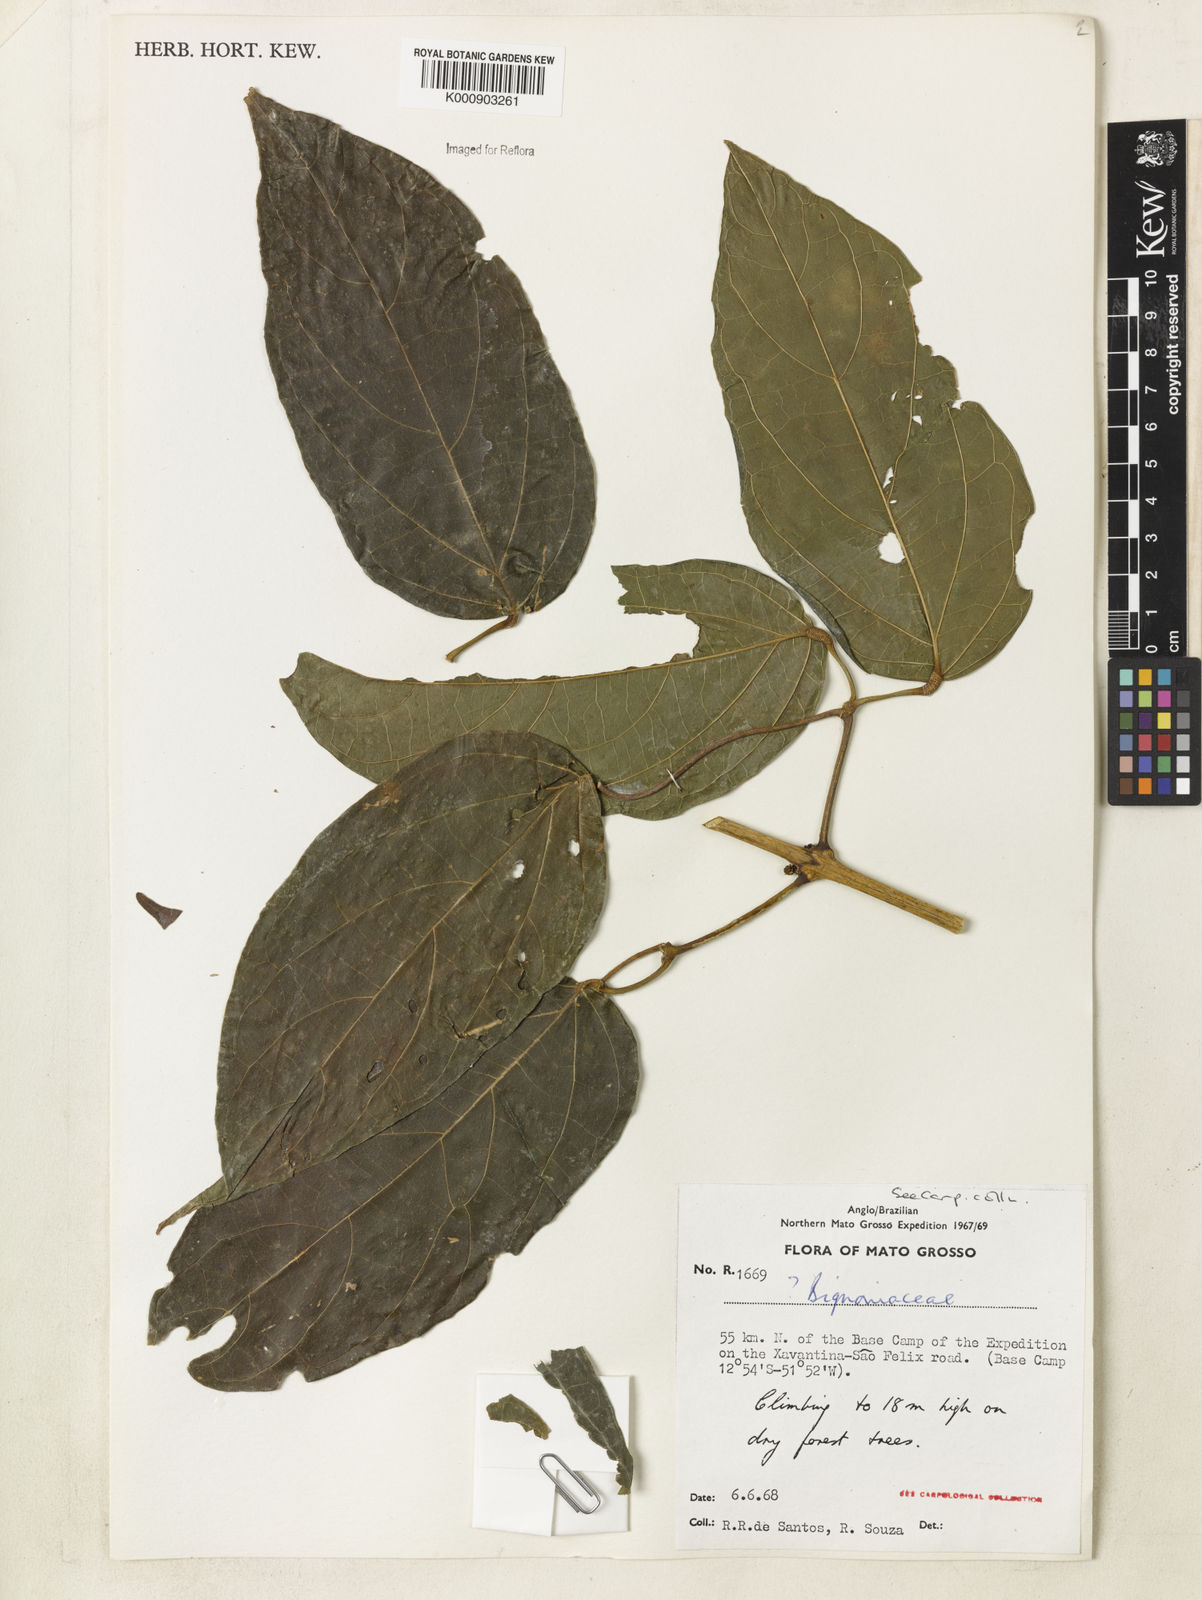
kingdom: Plantae
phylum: Tracheophyta
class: Magnoliopsida
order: Lamiales
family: Bignoniaceae
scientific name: Bignoniaceae
